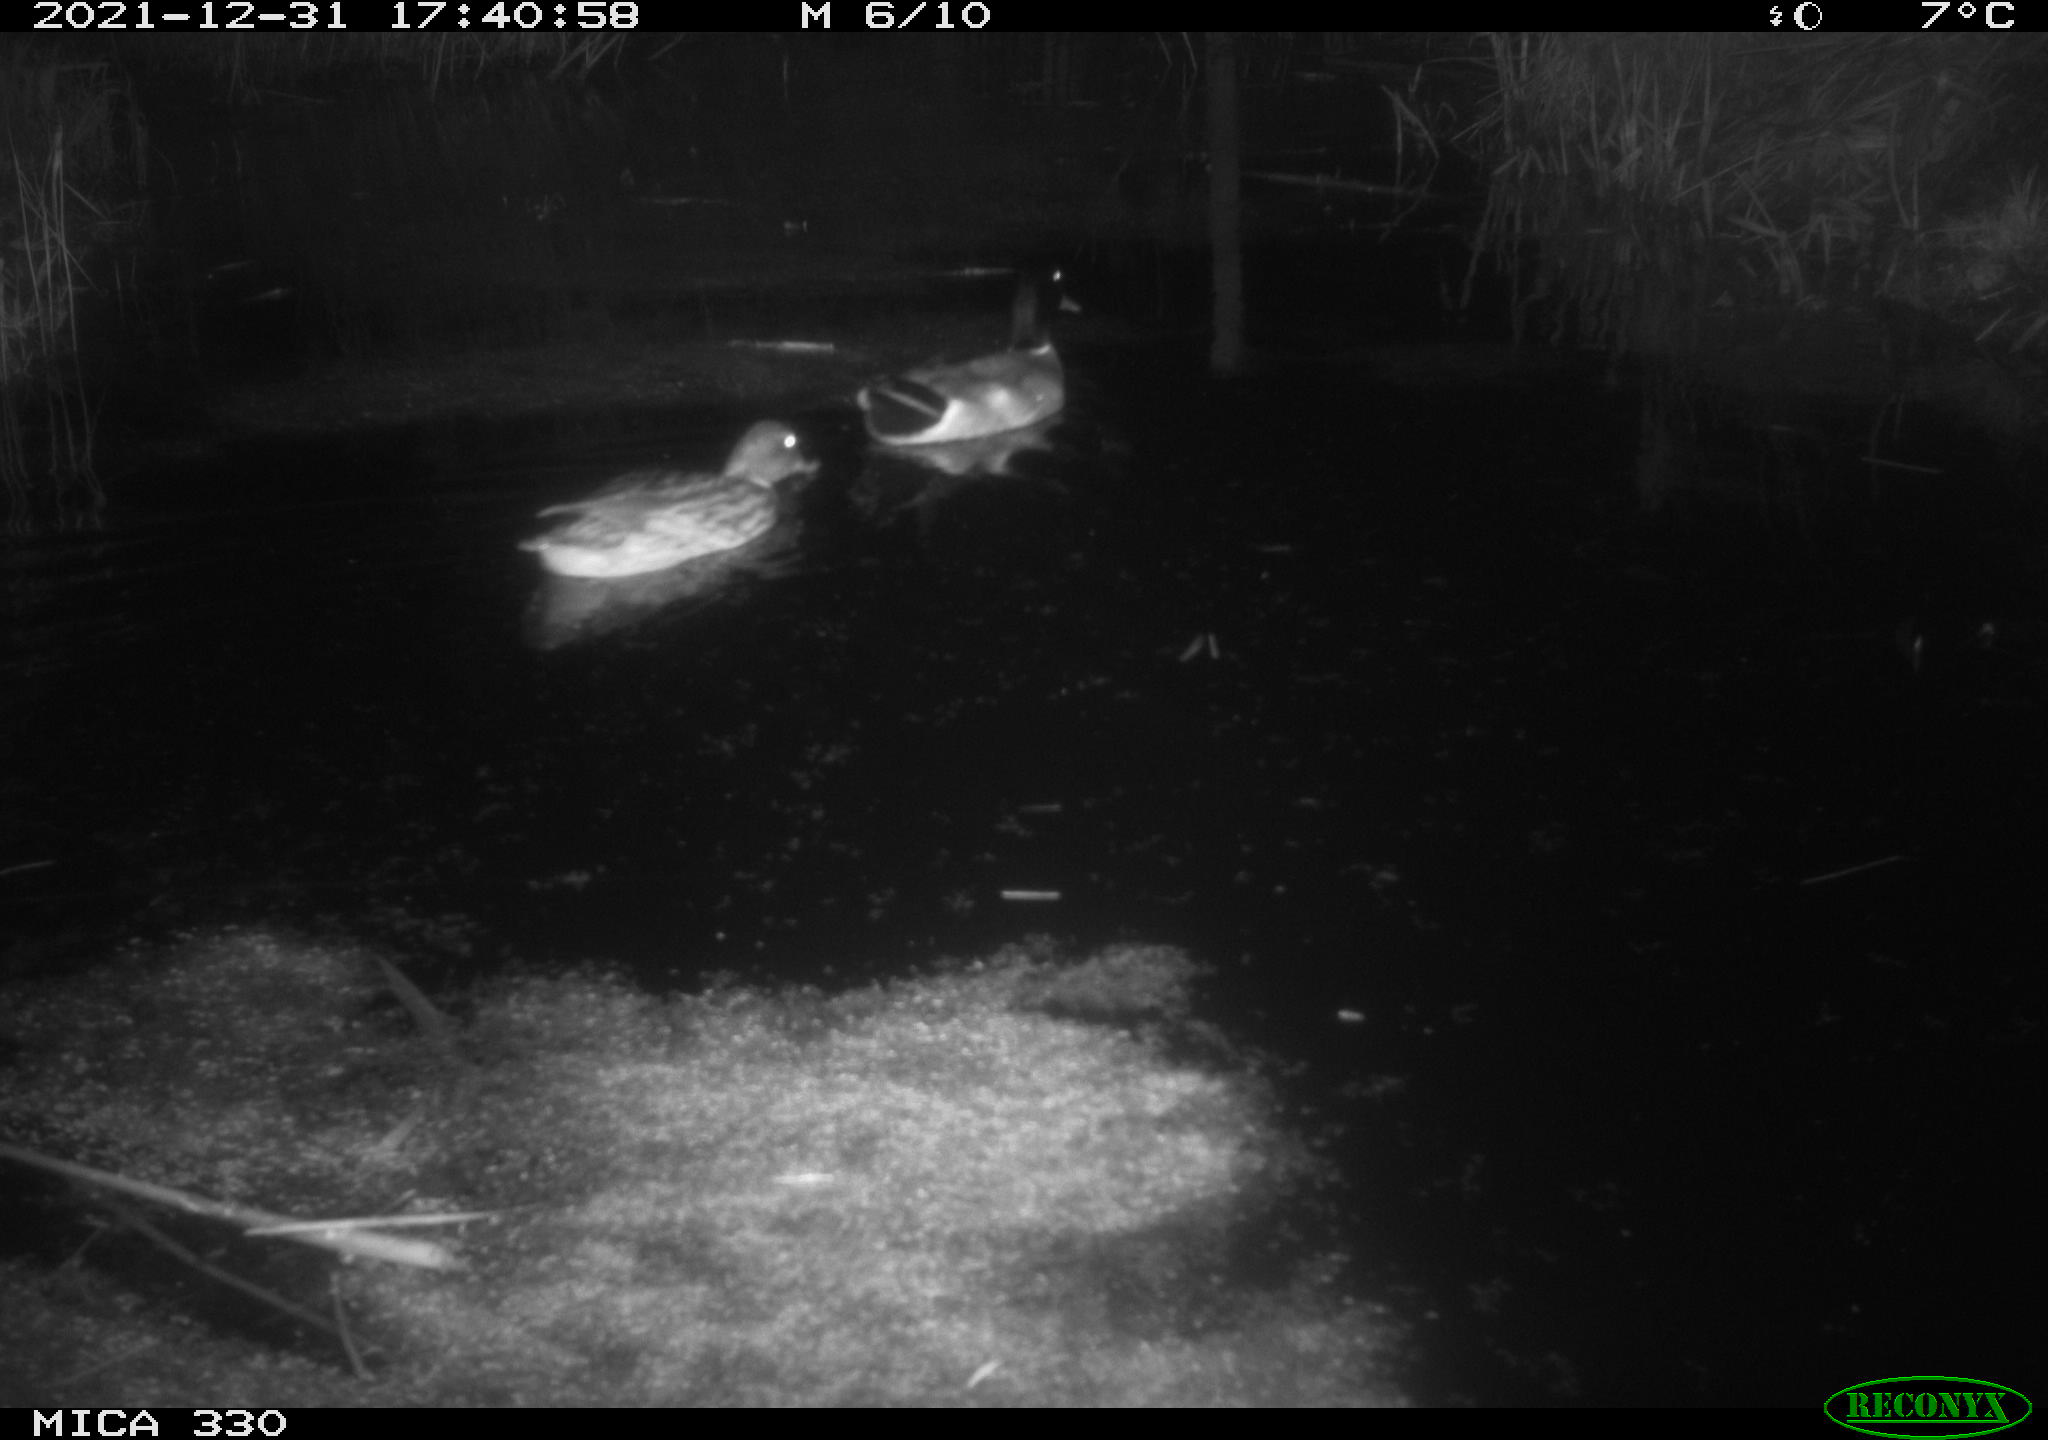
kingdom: Animalia
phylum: Chordata
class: Aves
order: Anseriformes
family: Anatidae
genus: Anas
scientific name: Anas platyrhynchos
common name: Mallard
